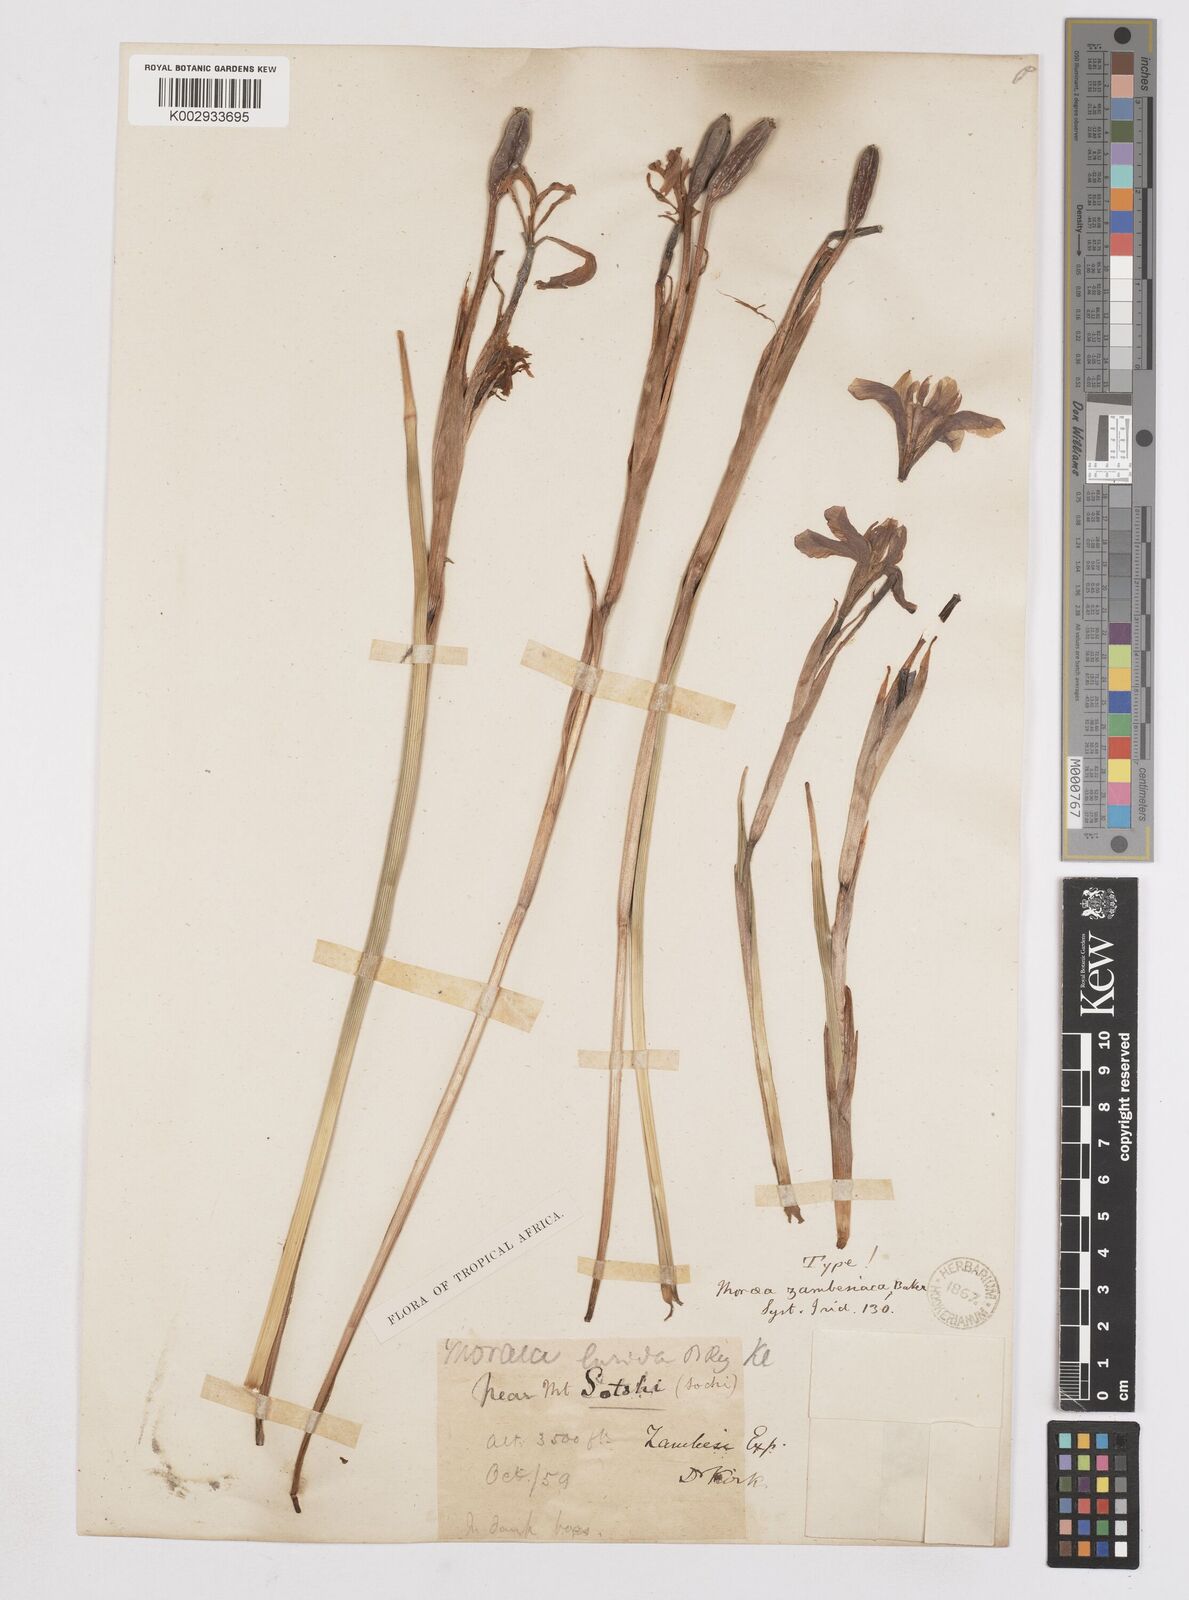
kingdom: Plantae
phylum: Tracheophyta
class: Liliopsida
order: Asparagales
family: Iridaceae
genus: Moraea
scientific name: Moraea schimperi
